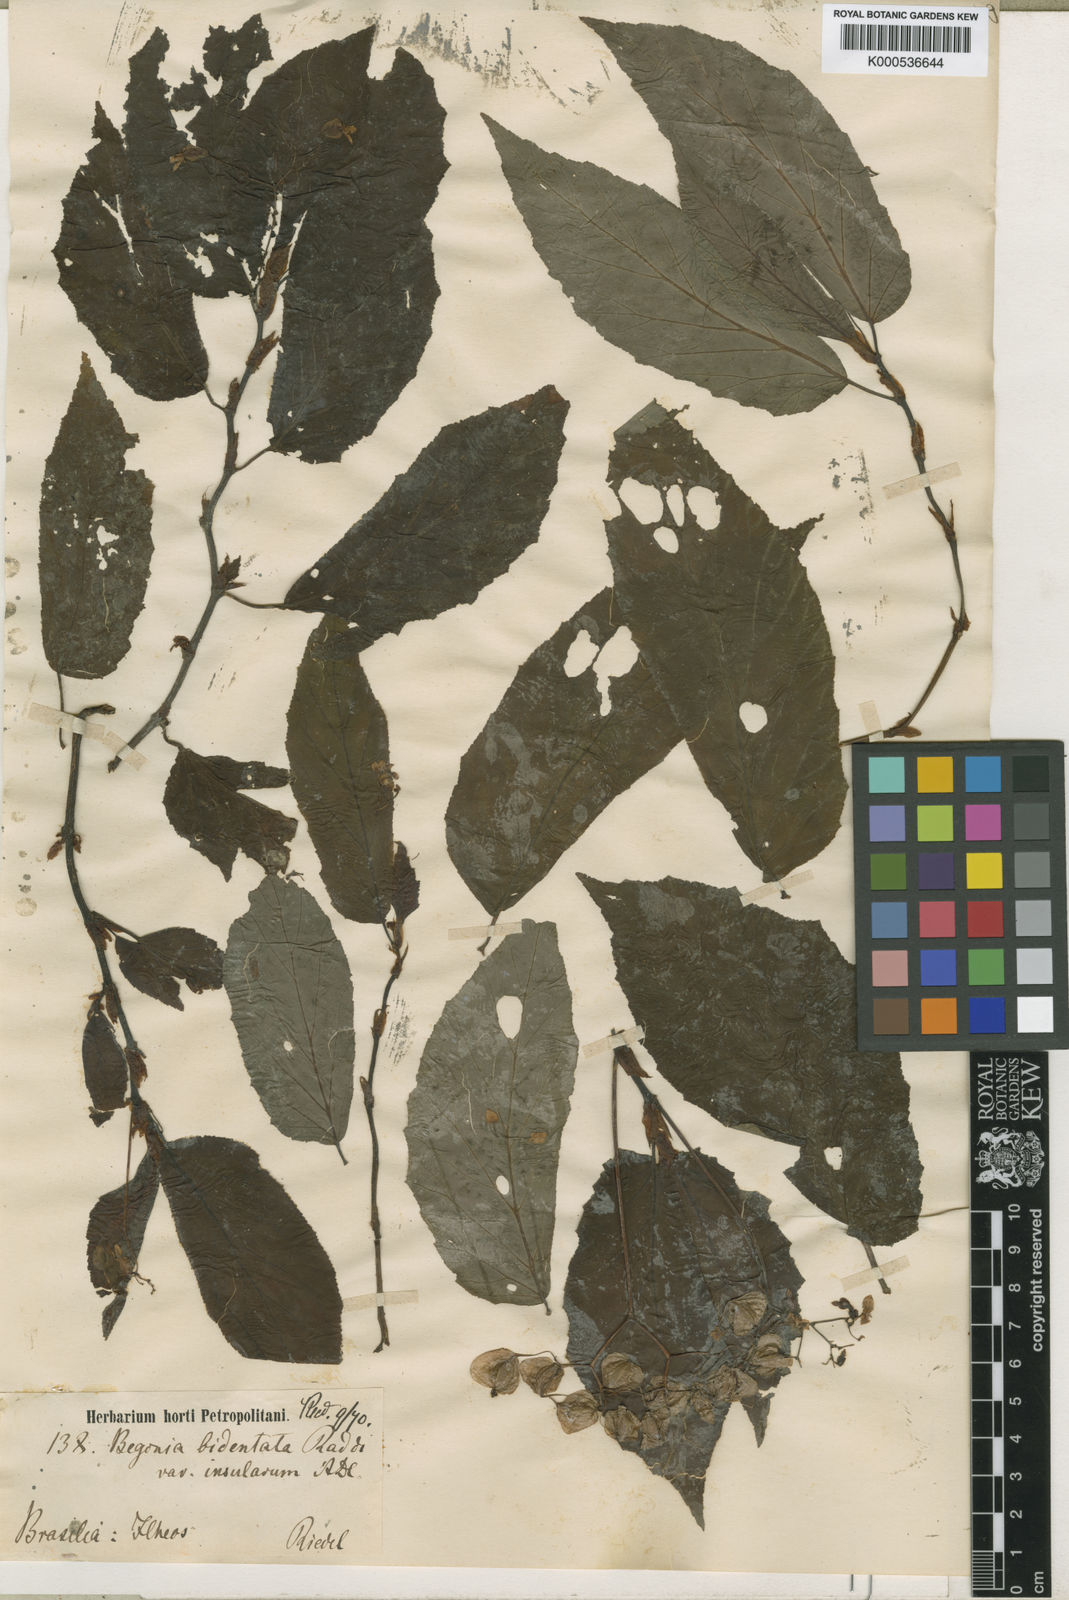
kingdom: Plantae
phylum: Tracheophyta
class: Magnoliopsida
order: Cucurbitales
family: Begoniaceae
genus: Begonia
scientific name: Begonia bidentata
